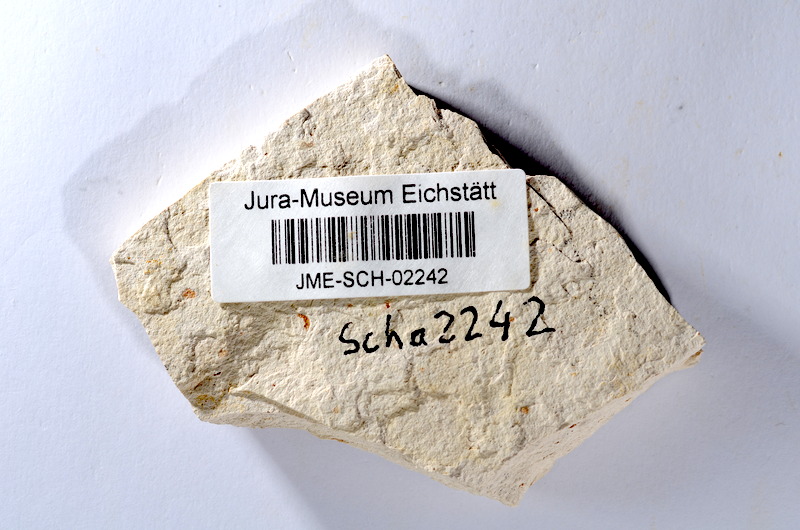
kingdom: Animalia
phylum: Chordata
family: Ascalaboidae
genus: Tharsis
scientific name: Tharsis dubius
